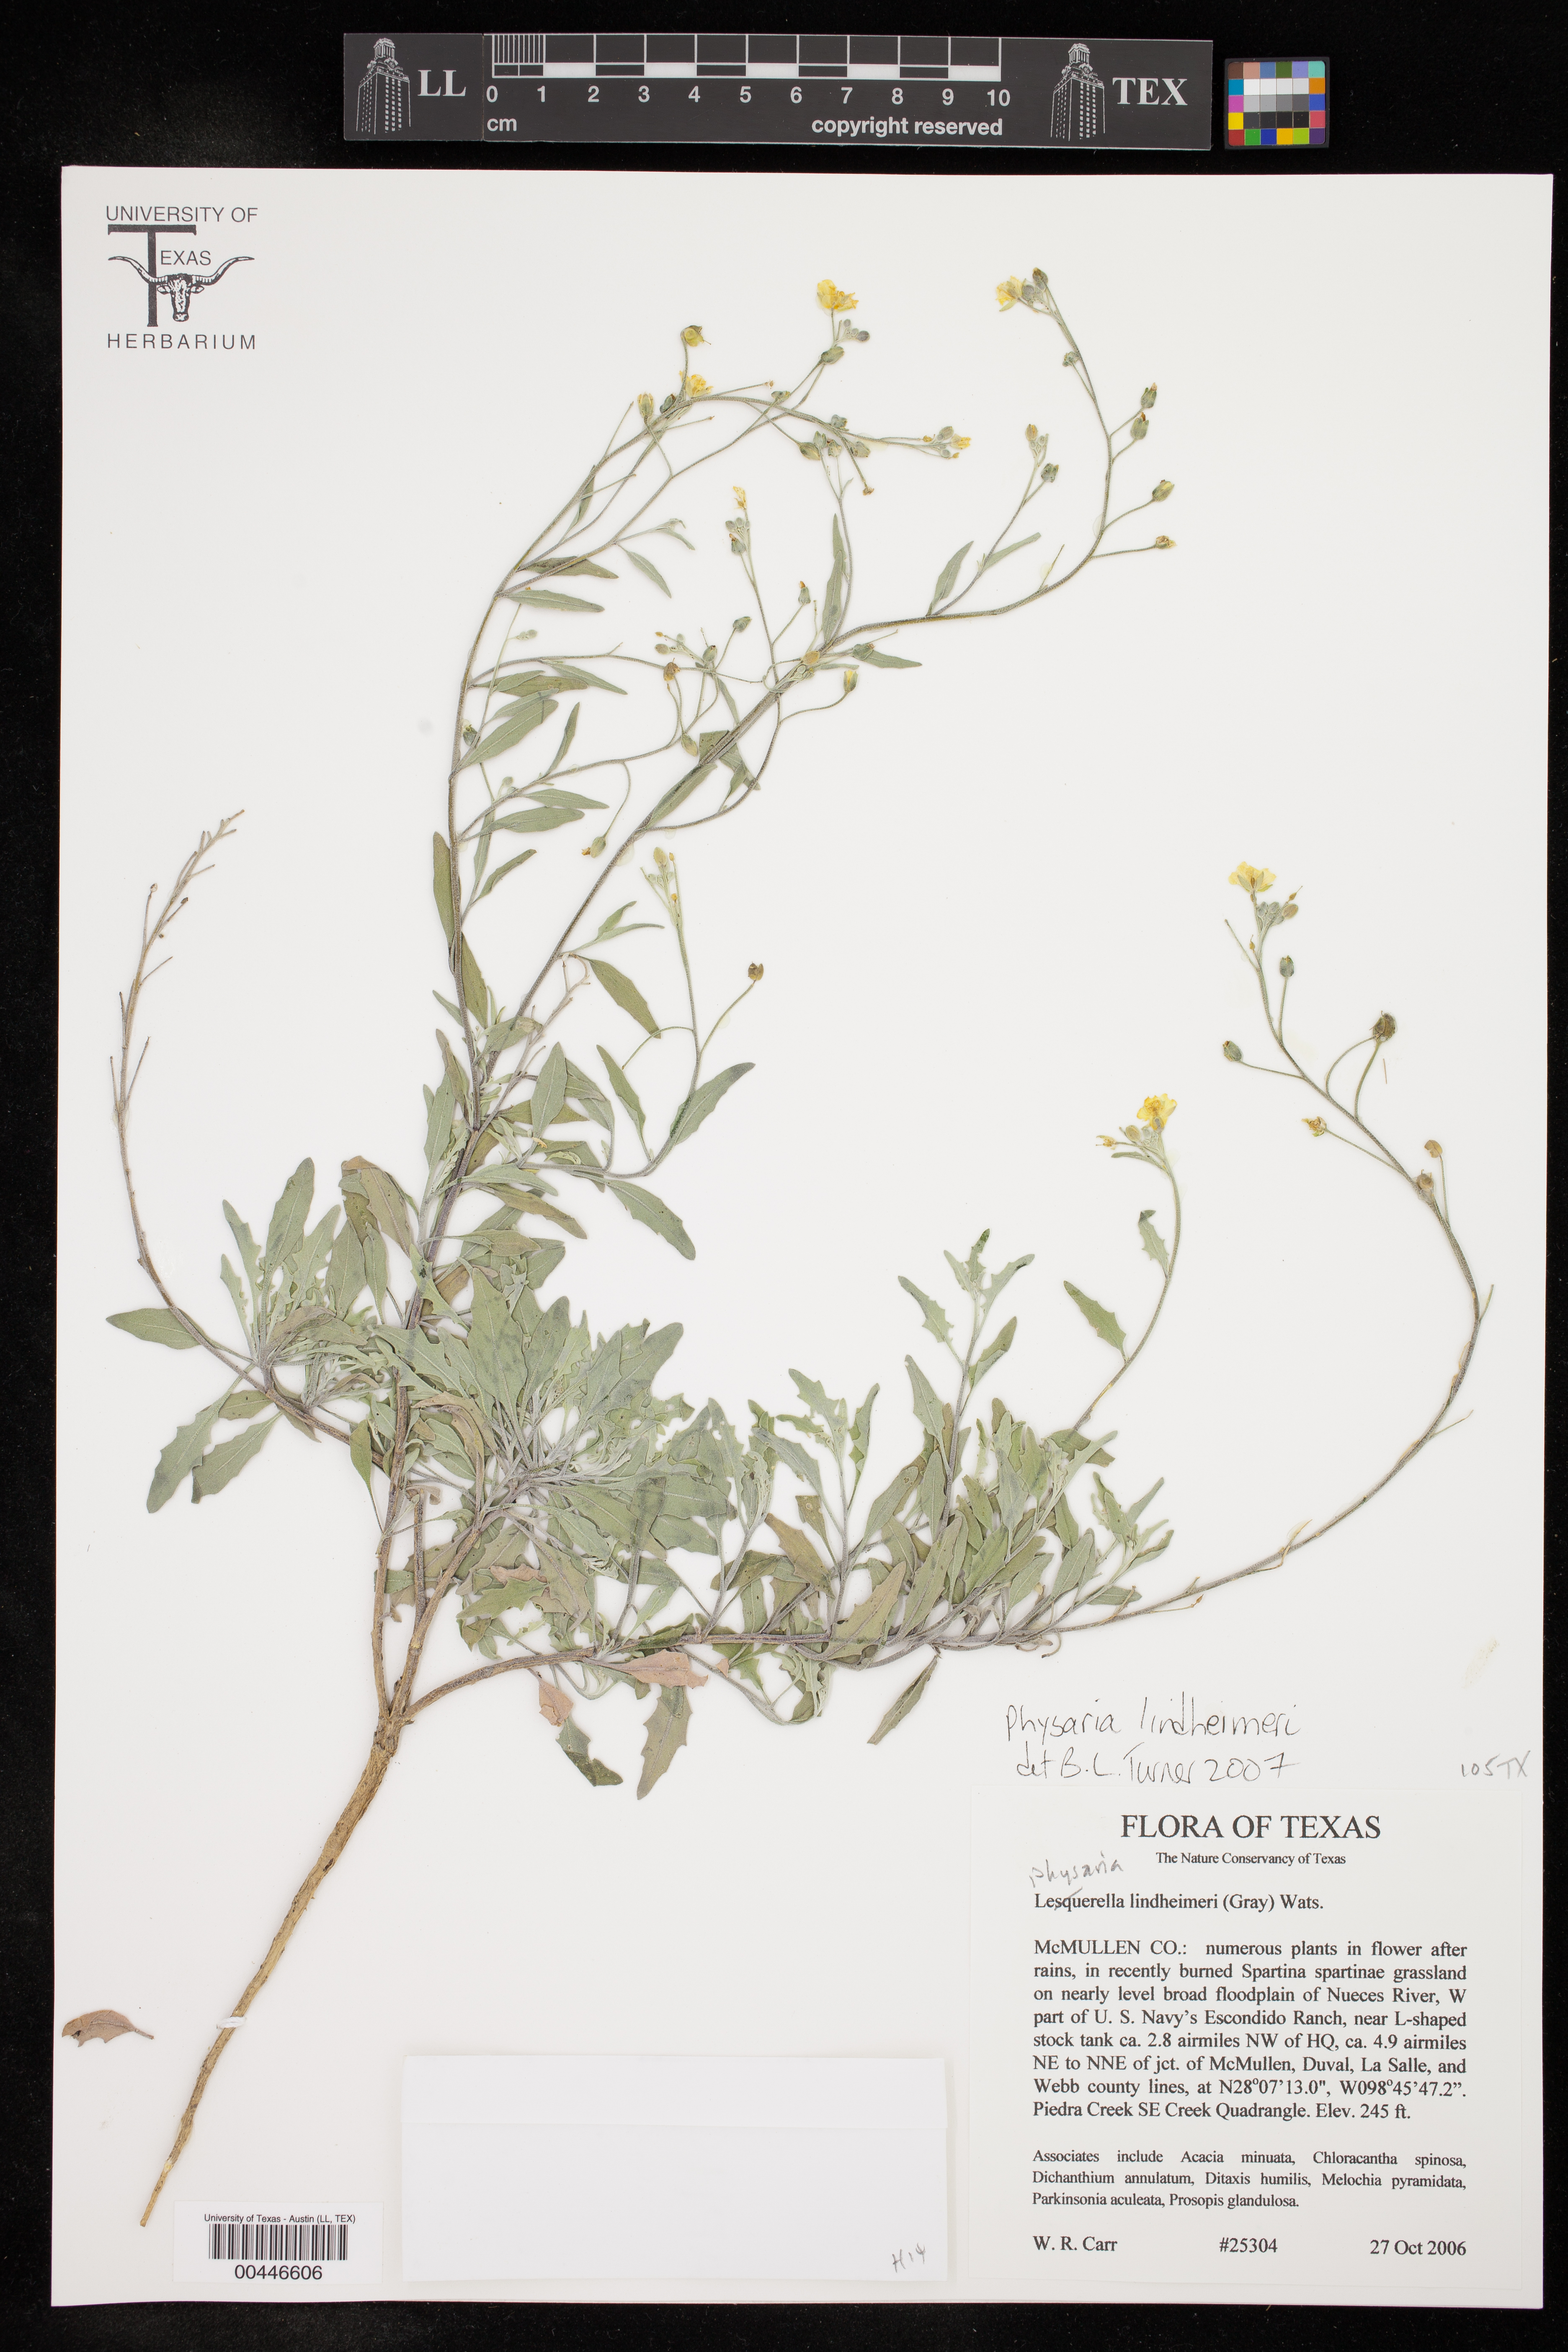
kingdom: Plantae
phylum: Tracheophyta
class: Magnoliopsida
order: Brassicales
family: Brassicaceae
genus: Physaria
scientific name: Physaria lindheimeri
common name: Lindheimer's bladderpod
